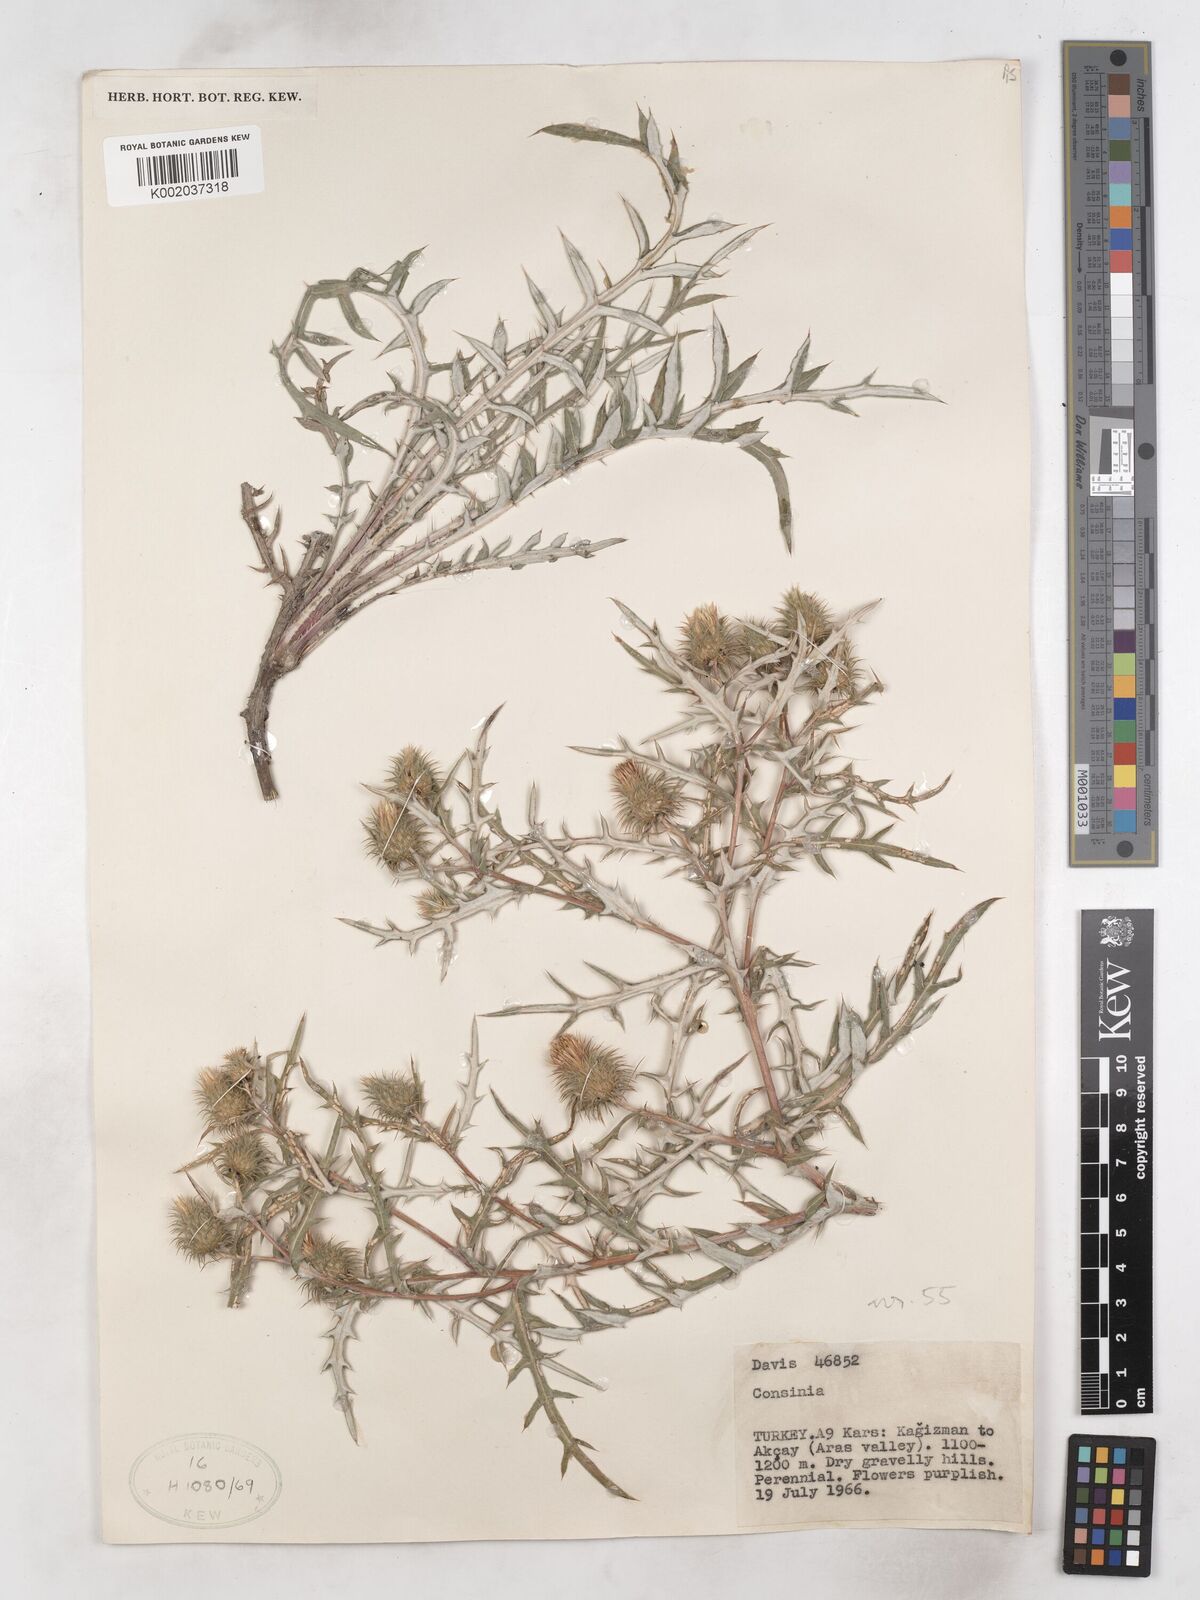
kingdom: Plantae
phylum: Tracheophyta
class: Magnoliopsida
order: Asterales
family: Asteraceae
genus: Cousinia
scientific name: Cousinia brachyptera
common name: Short-winged cousinia
